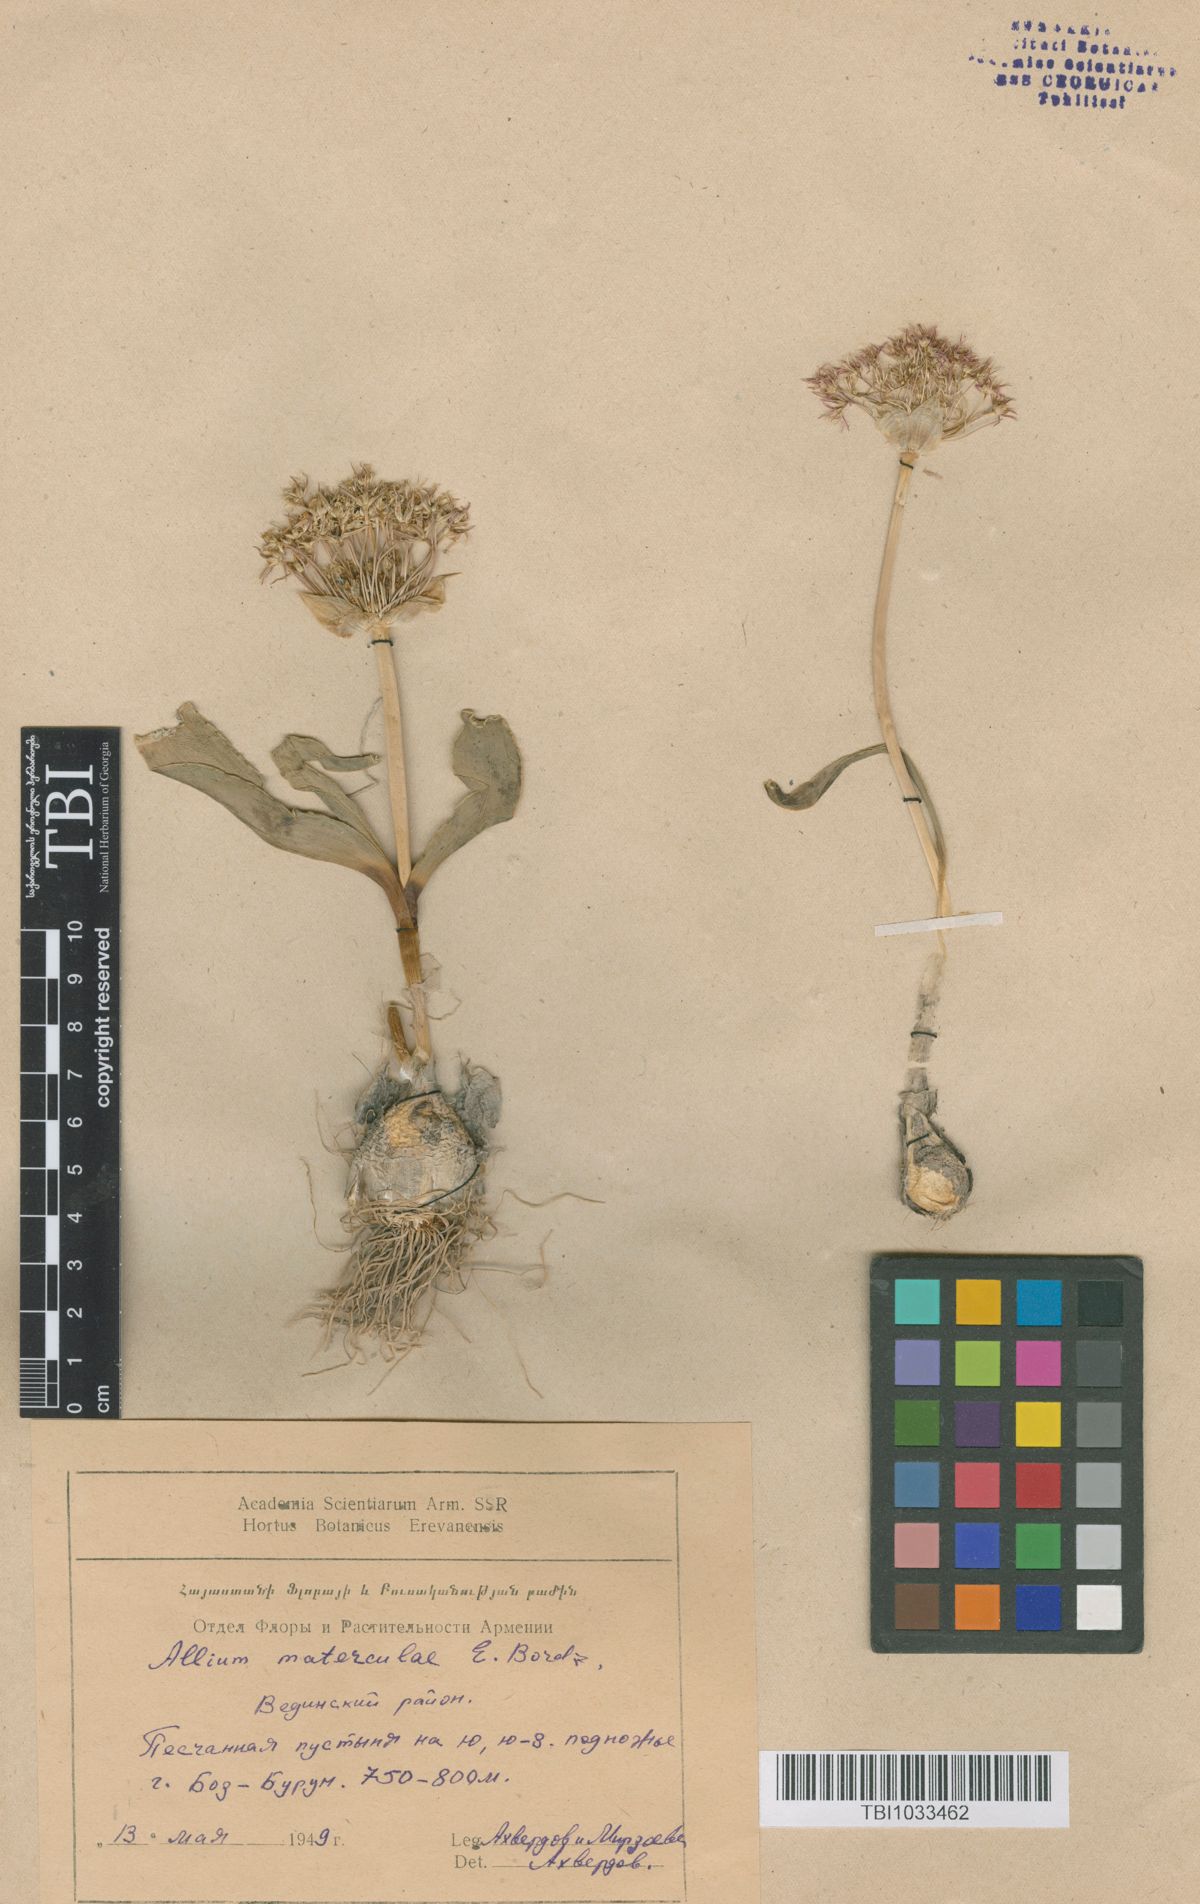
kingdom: Plantae
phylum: Tracheophyta
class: Liliopsida
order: Asparagales
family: Amaryllidaceae
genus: Allium
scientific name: Allium materculae
